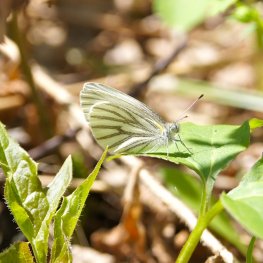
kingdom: Animalia
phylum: Arthropoda
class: Insecta
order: Lepidoptera
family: Pieridae
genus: Pieris
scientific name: Pieris oleracea
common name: Mustard White
